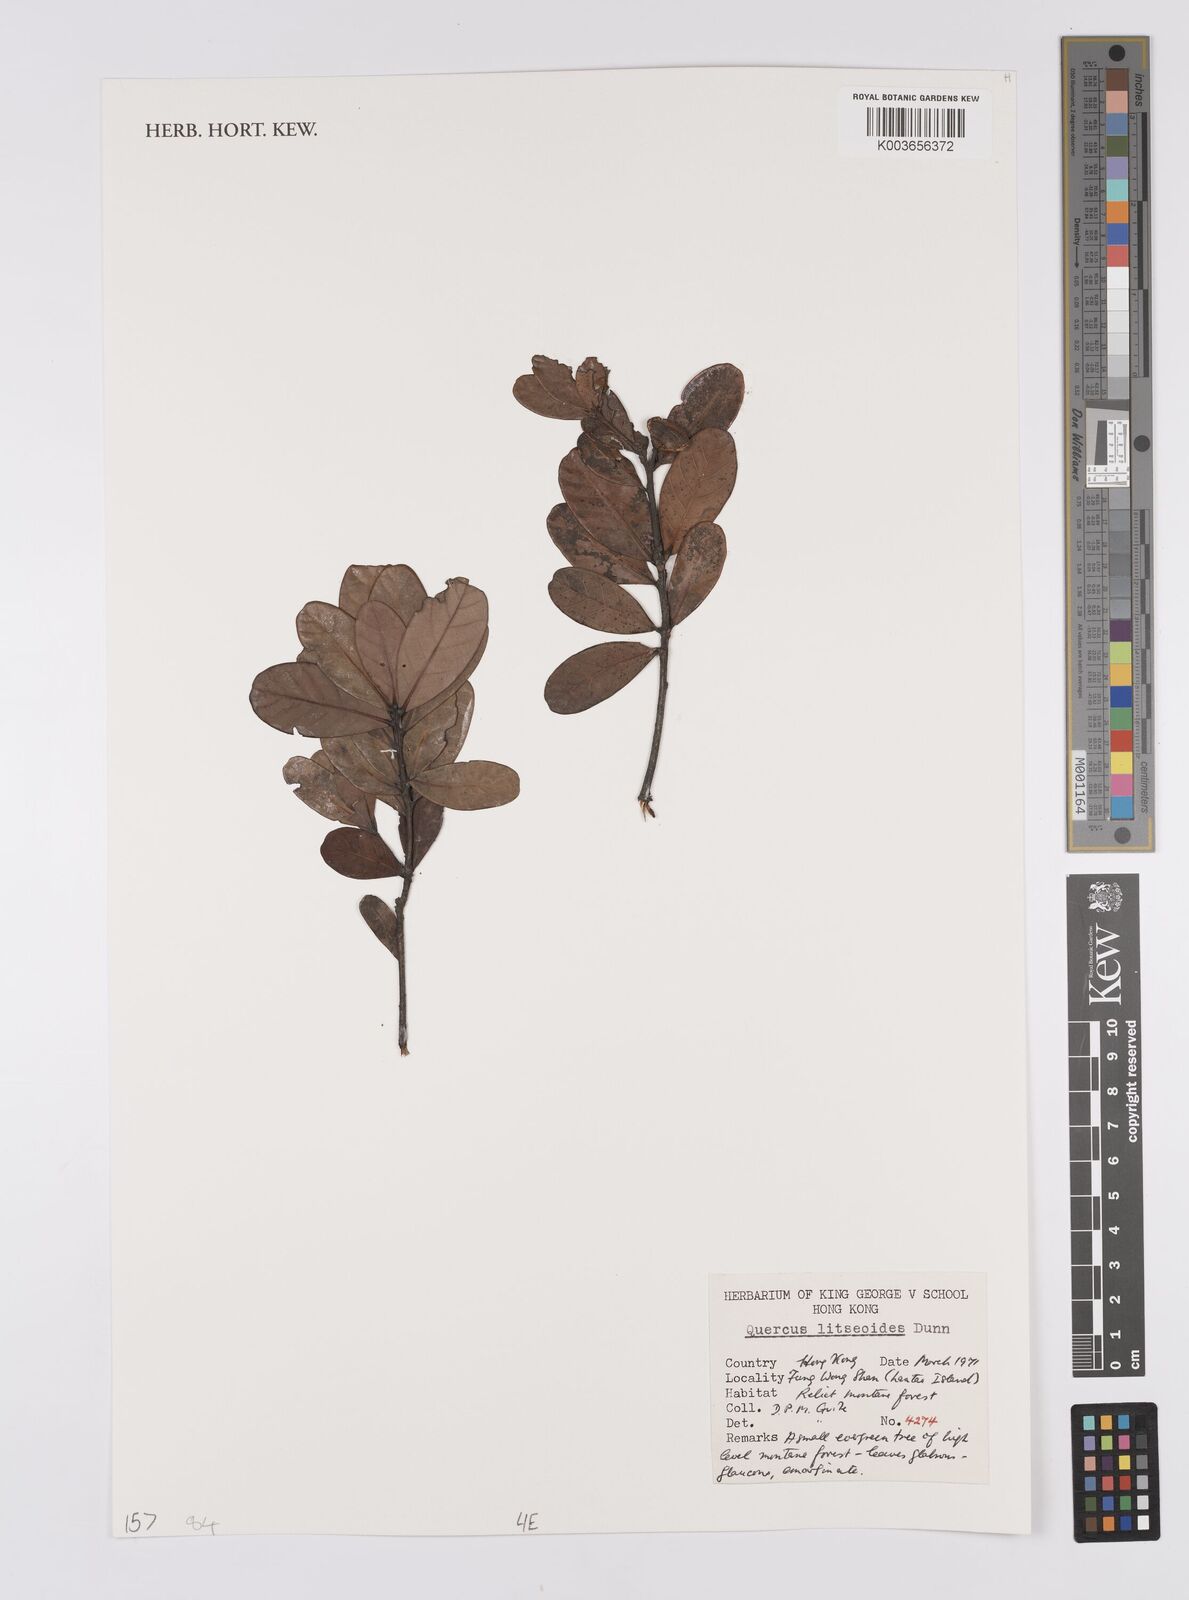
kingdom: Plantae
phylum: Tracheophyta
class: Magnoliopsida
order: Fagales
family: Fagaceae
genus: Quercus
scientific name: Quercus litseoides
